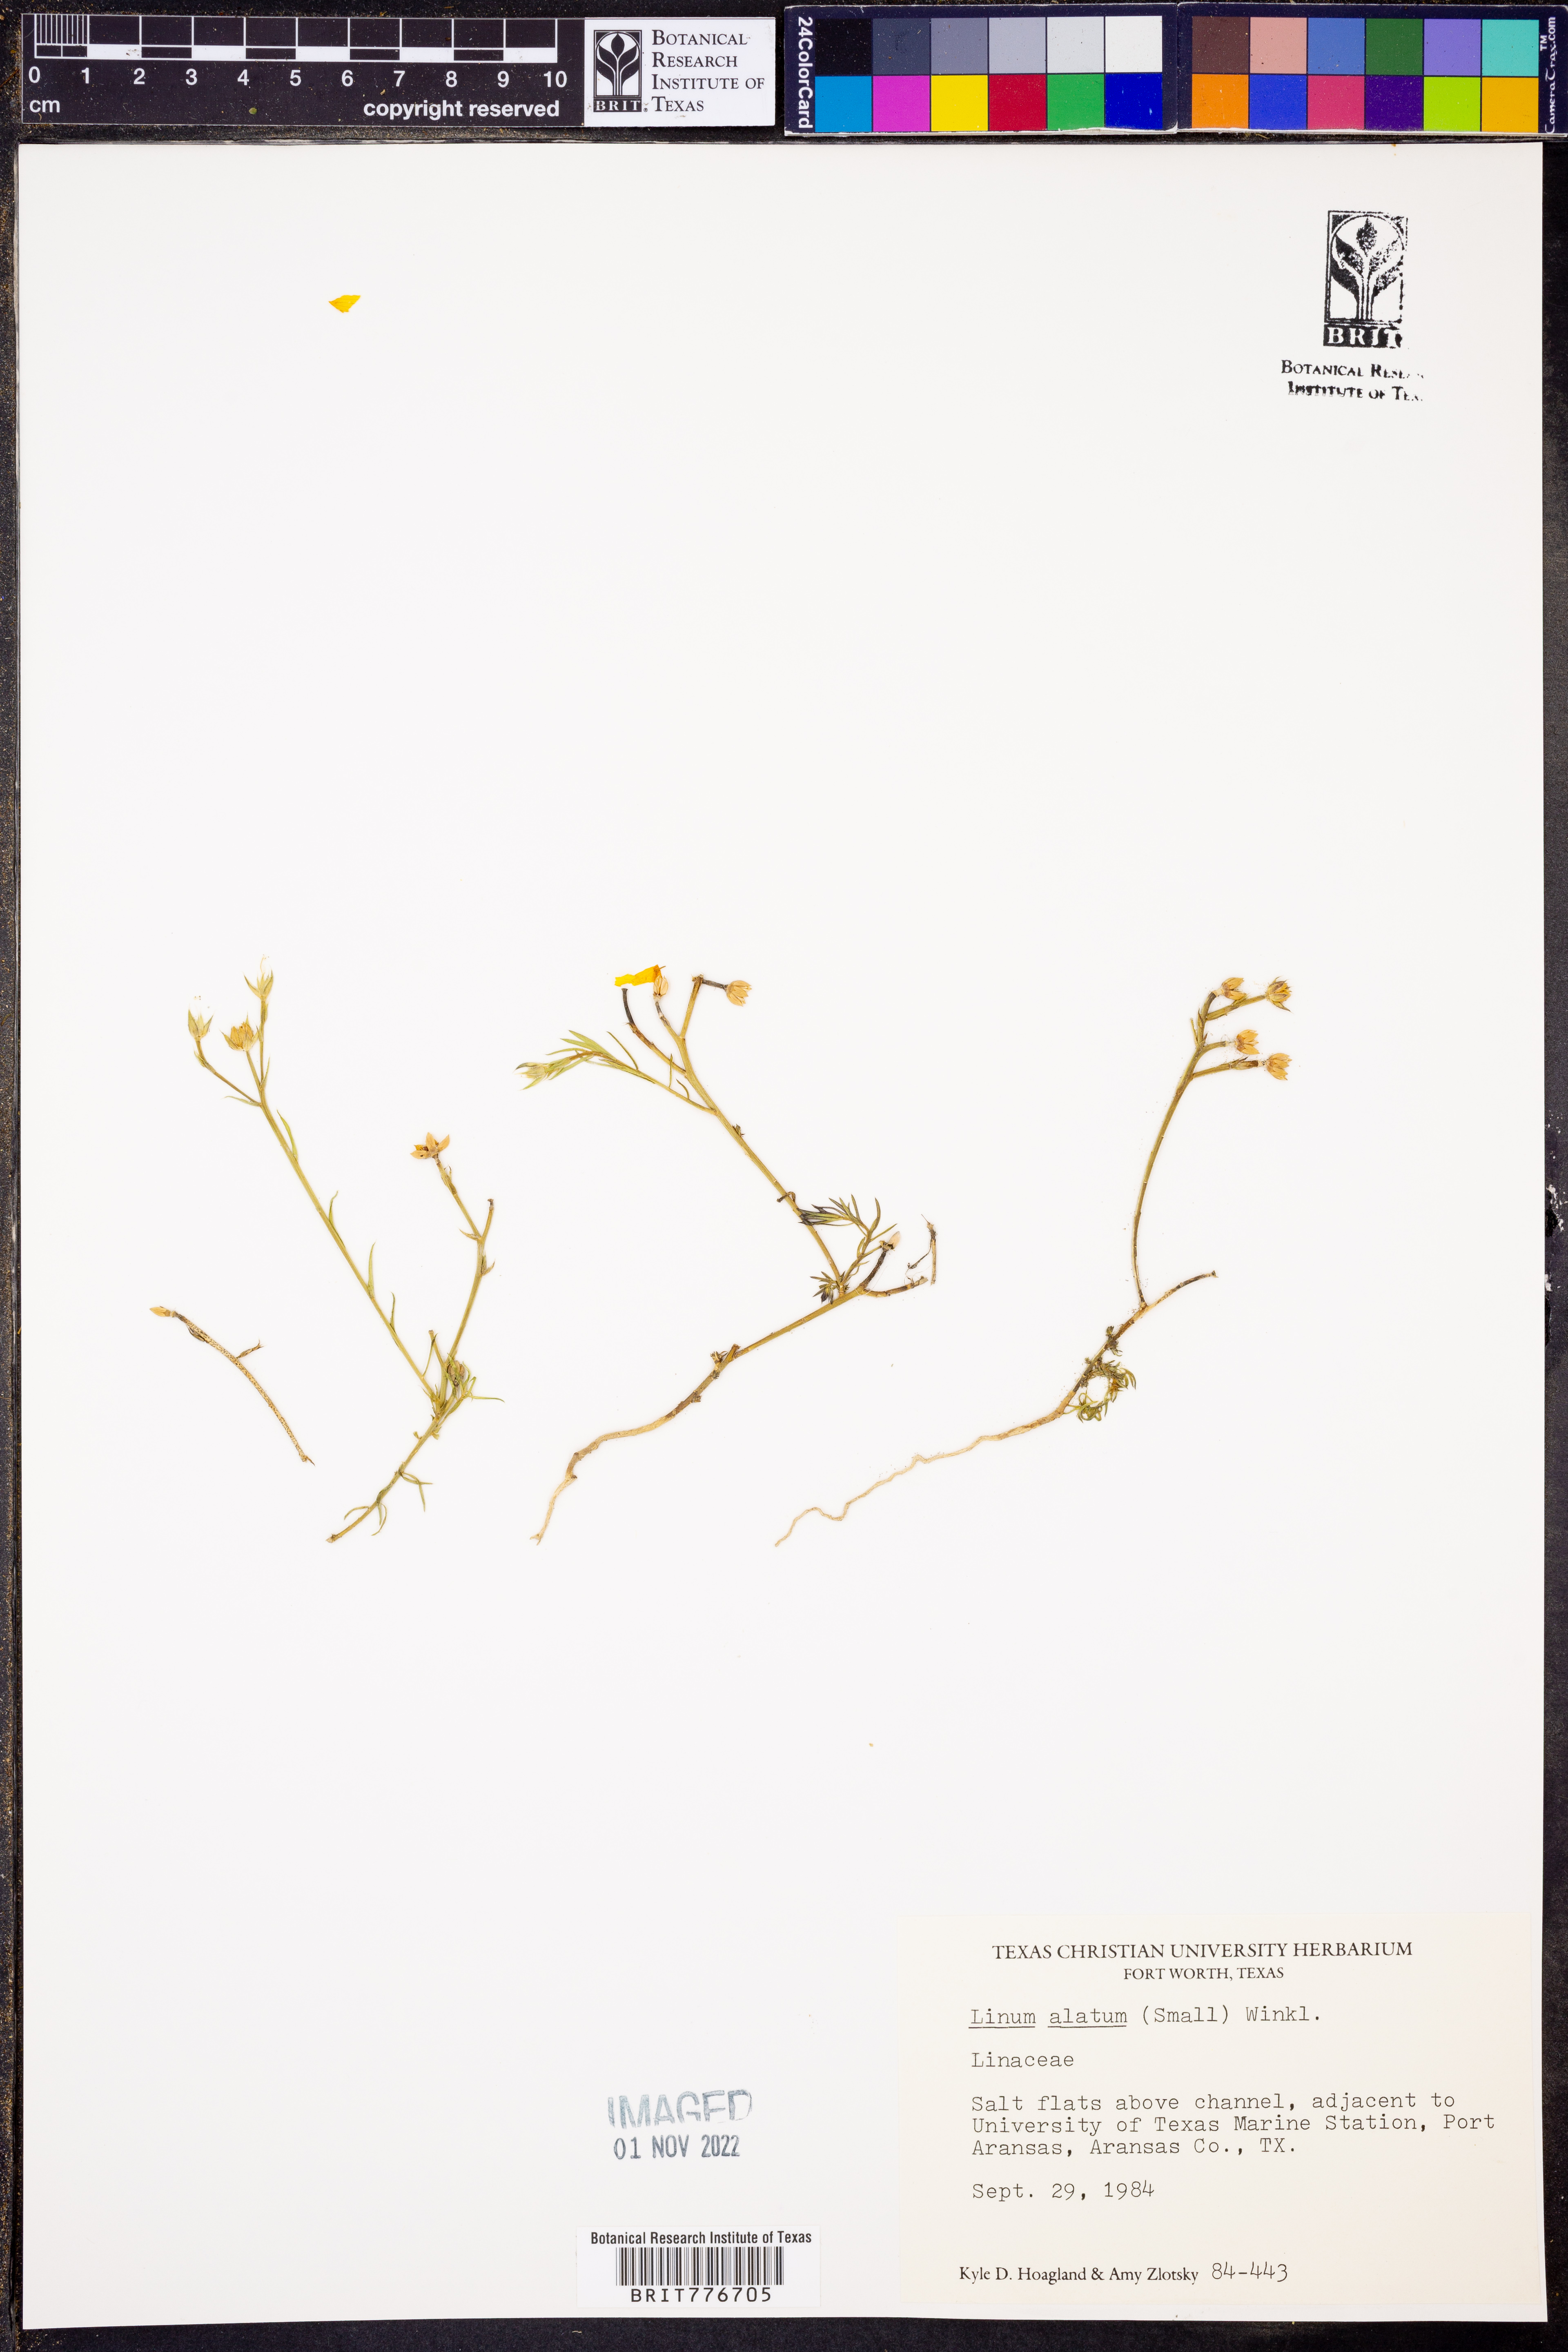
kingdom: Plantae
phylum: Tracheophyta
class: Magnoliopsida
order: Malpighiales
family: Linaceae
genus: Linum
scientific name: Linum alatum
